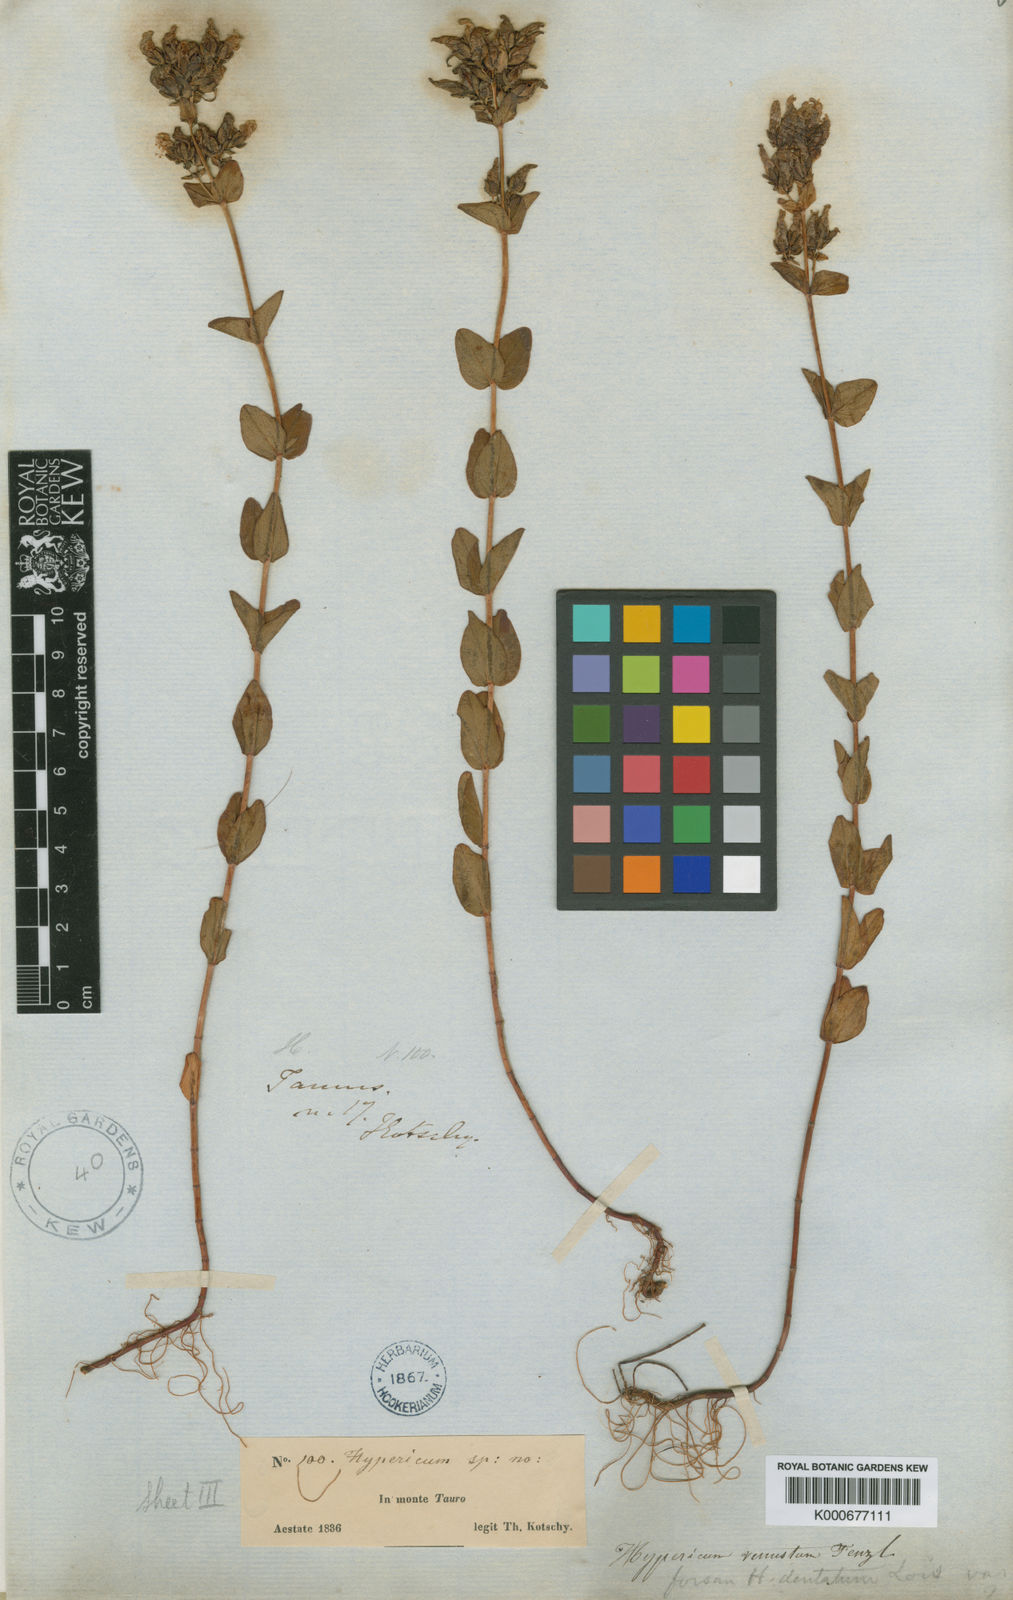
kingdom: Plantae
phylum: Tracheophyta
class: Magnoliopsida
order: Malpighiales
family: Hypericaceae
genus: Hypericum
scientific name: Hypericum venustum
